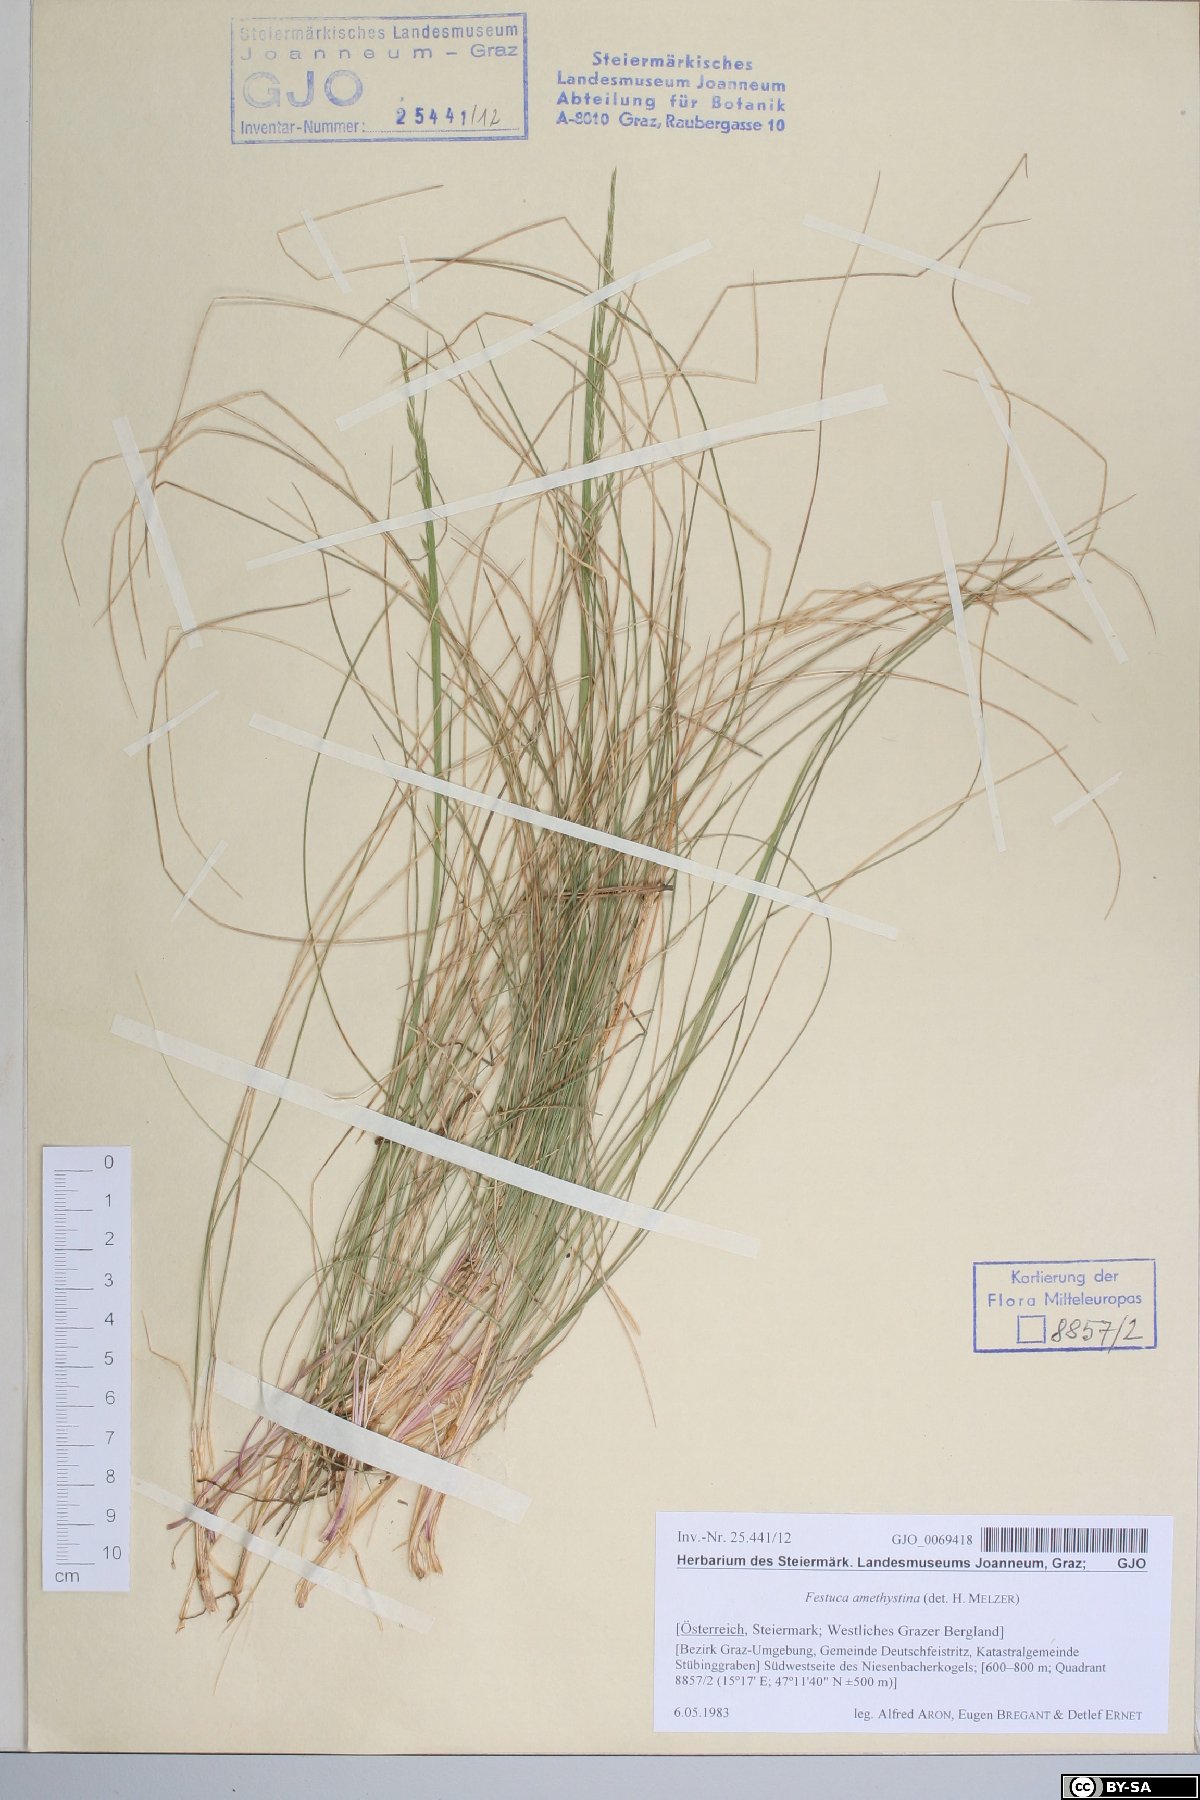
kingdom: Plantae
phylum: Tracheophyta
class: Liliopsida
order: Poales
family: Poaceae
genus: Festuca
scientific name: Festuca amethystina
